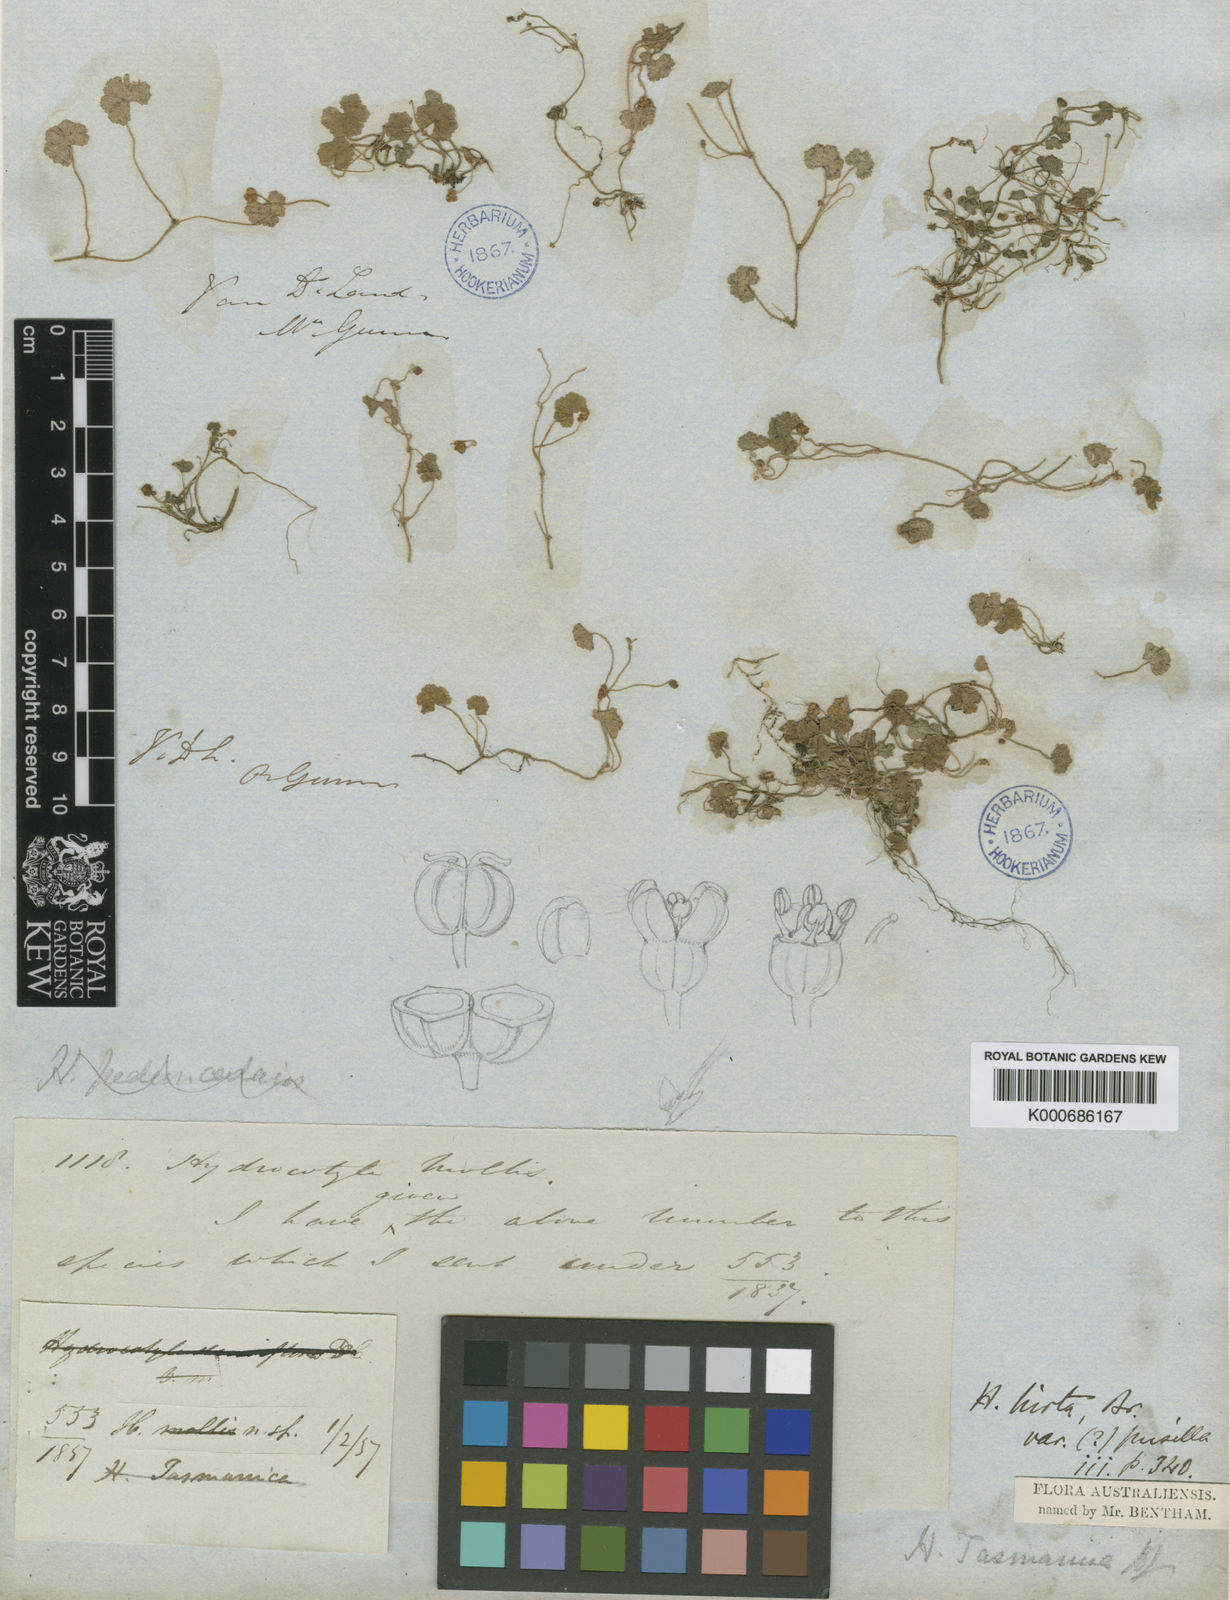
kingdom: Plantae
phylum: Tracheophyta
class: Magnoliopsida
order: Apiales
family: Araliaceae
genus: Hydrocotyle
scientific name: Hydrocotyle hirta
